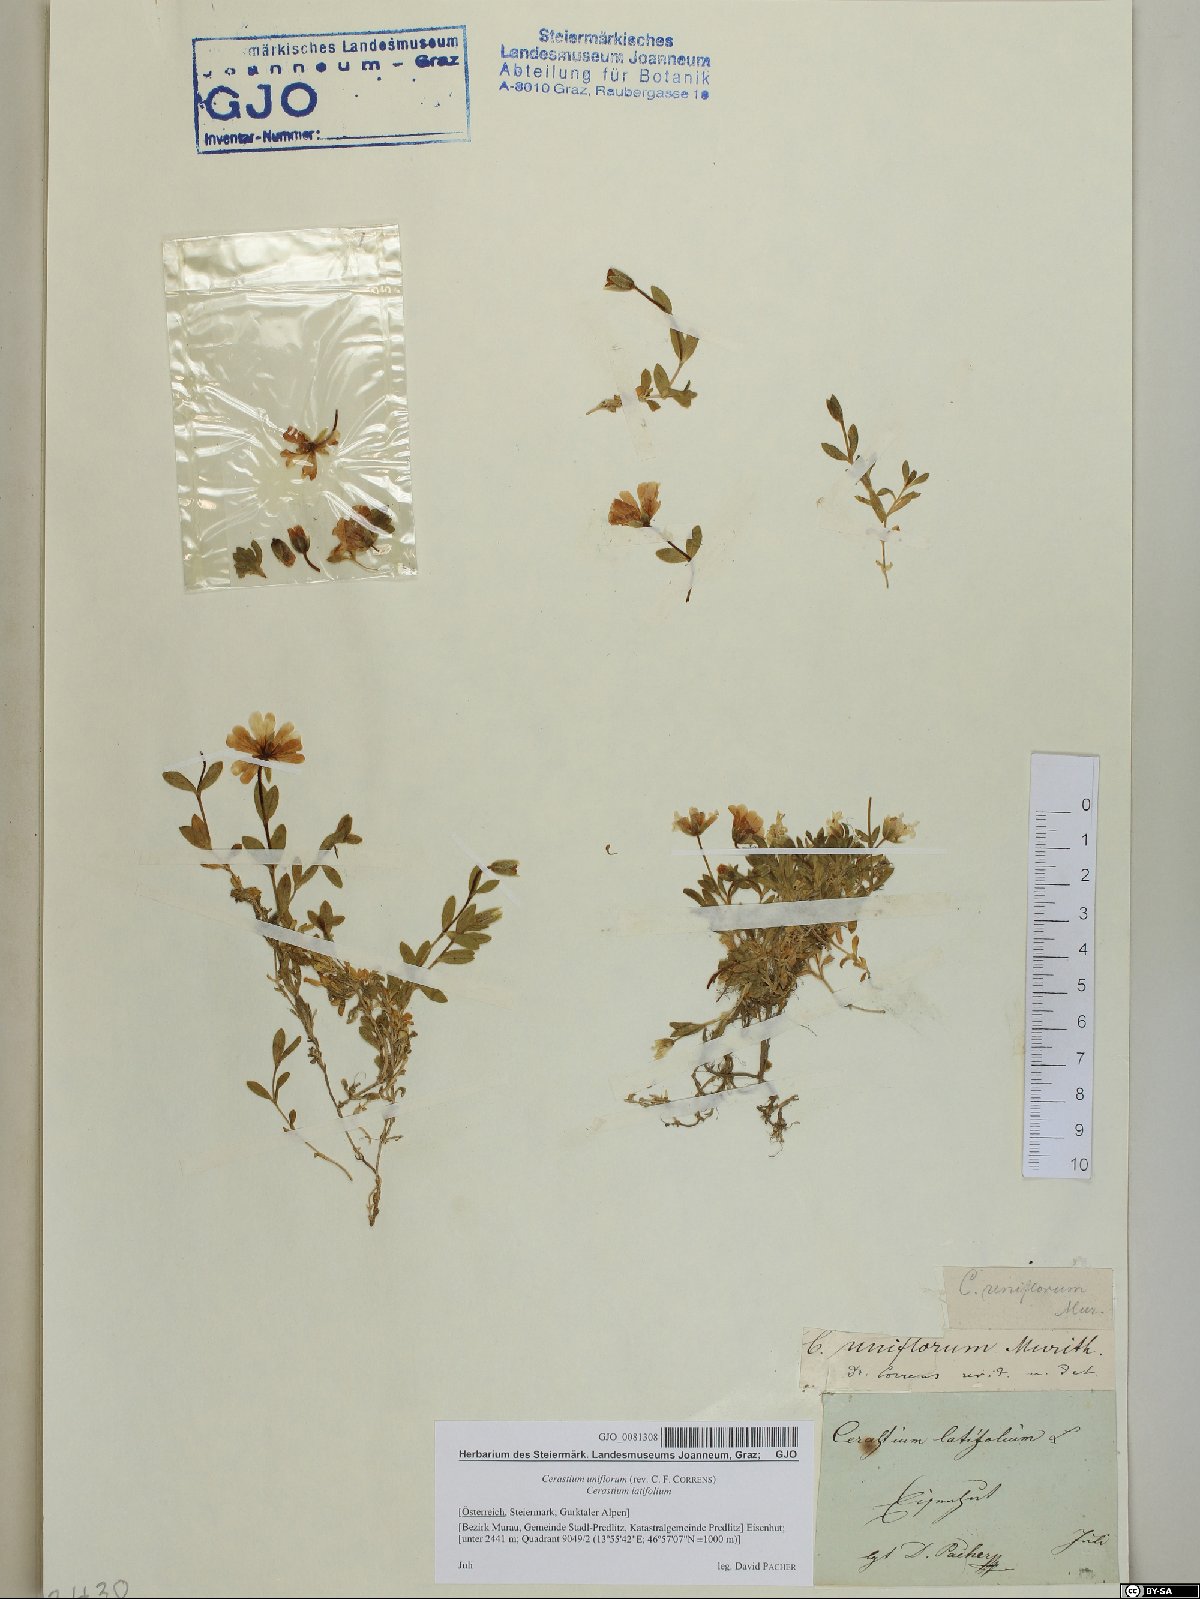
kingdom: Plantae
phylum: Tracheophyta
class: Magnoliopsida
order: Caryophyllales
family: Caryophyllaceae
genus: Cerastium
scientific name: Cerastium uniflorum
